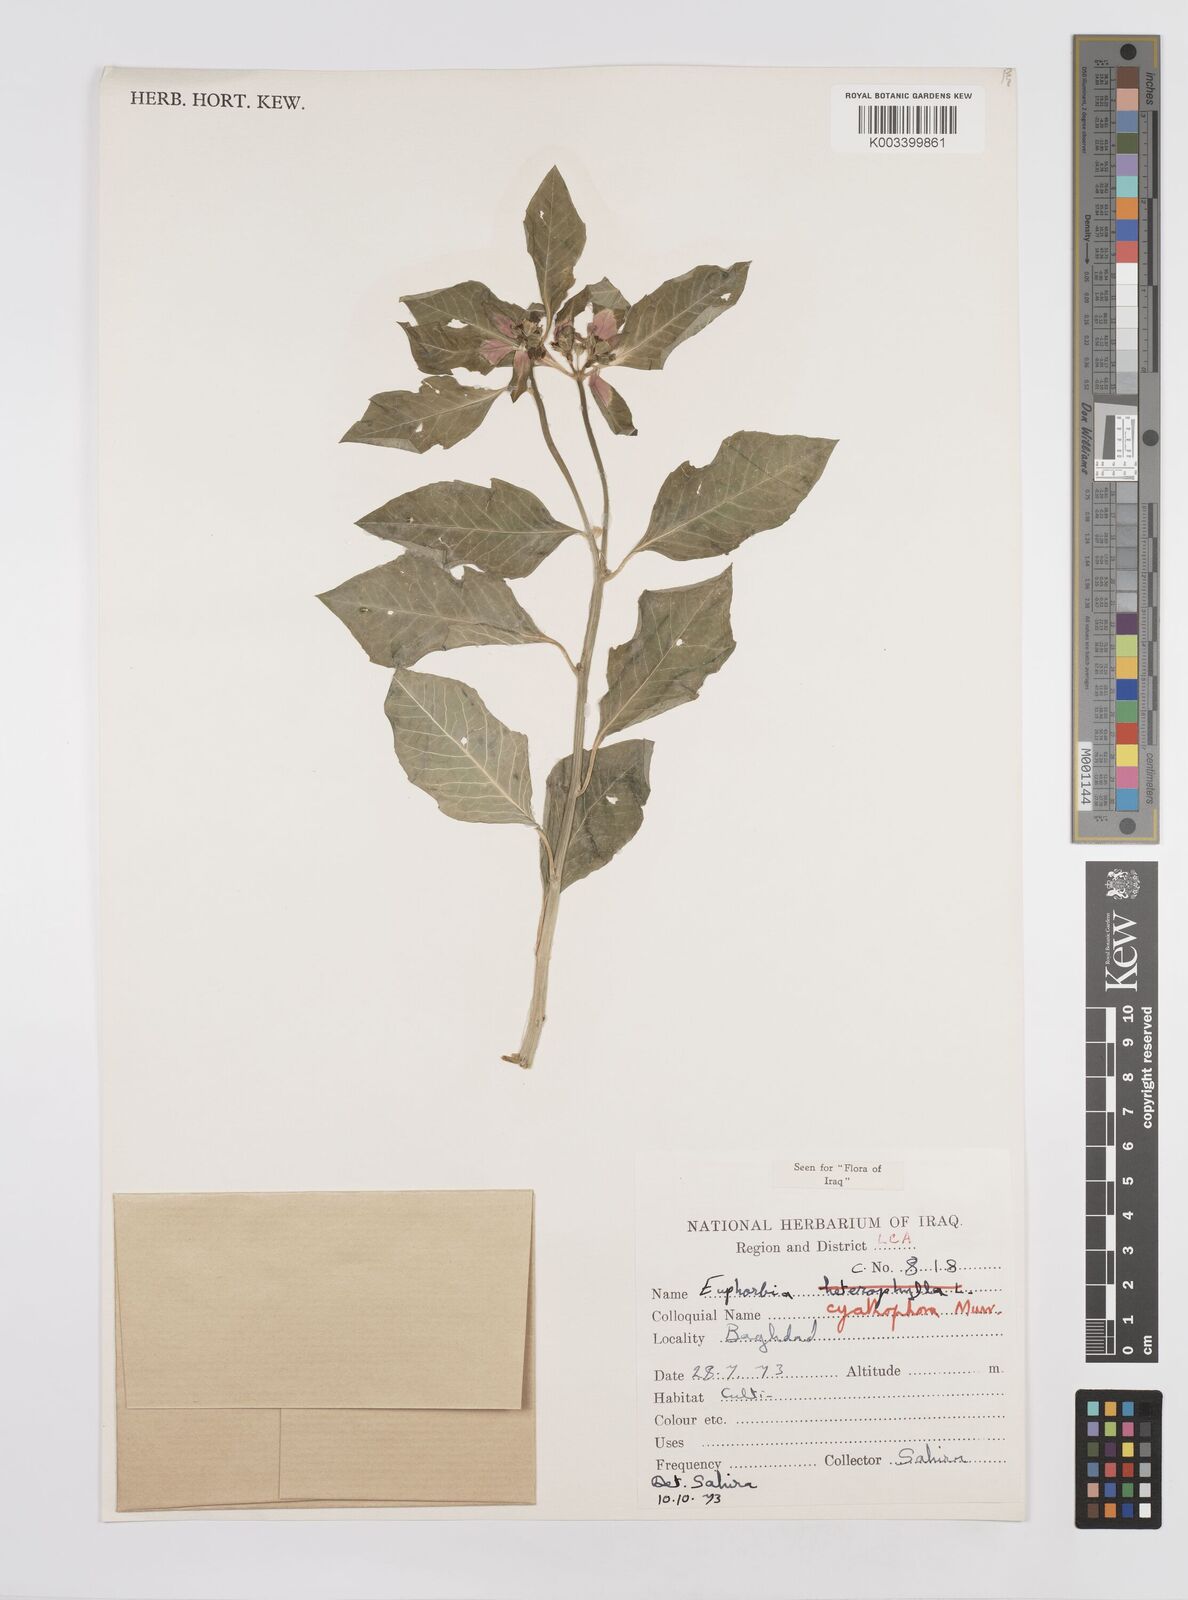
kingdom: Plantae
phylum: Tracheophyta
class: Magnoliopsida
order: Malpighiales
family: Euphorbiaceae
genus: Euphorbia
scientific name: Euphorbia heterophylla
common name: Mexican fireplant
